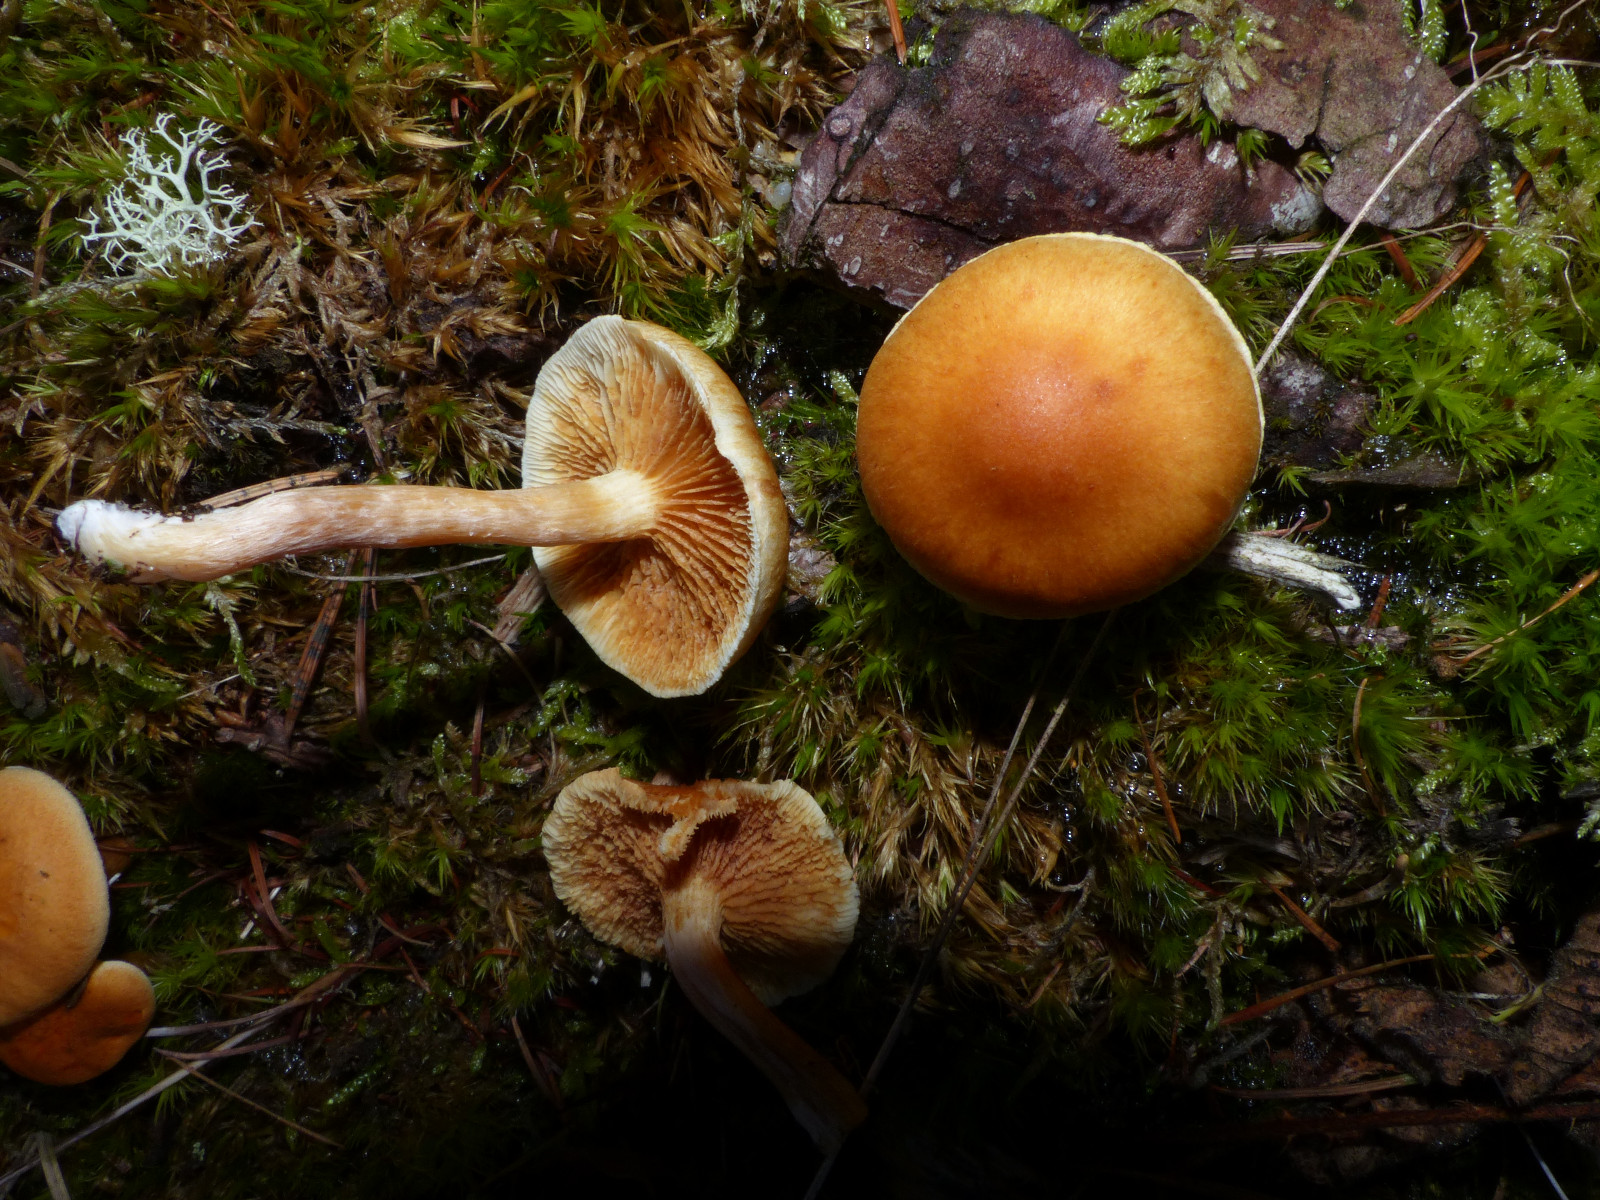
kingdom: Fungi
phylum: Basidiomycota
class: Agaricomycetes
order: Agaricales
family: Hymenogastraceae
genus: Gymnopilus
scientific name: Gymnopilus penetrans
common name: plettet flammehat
